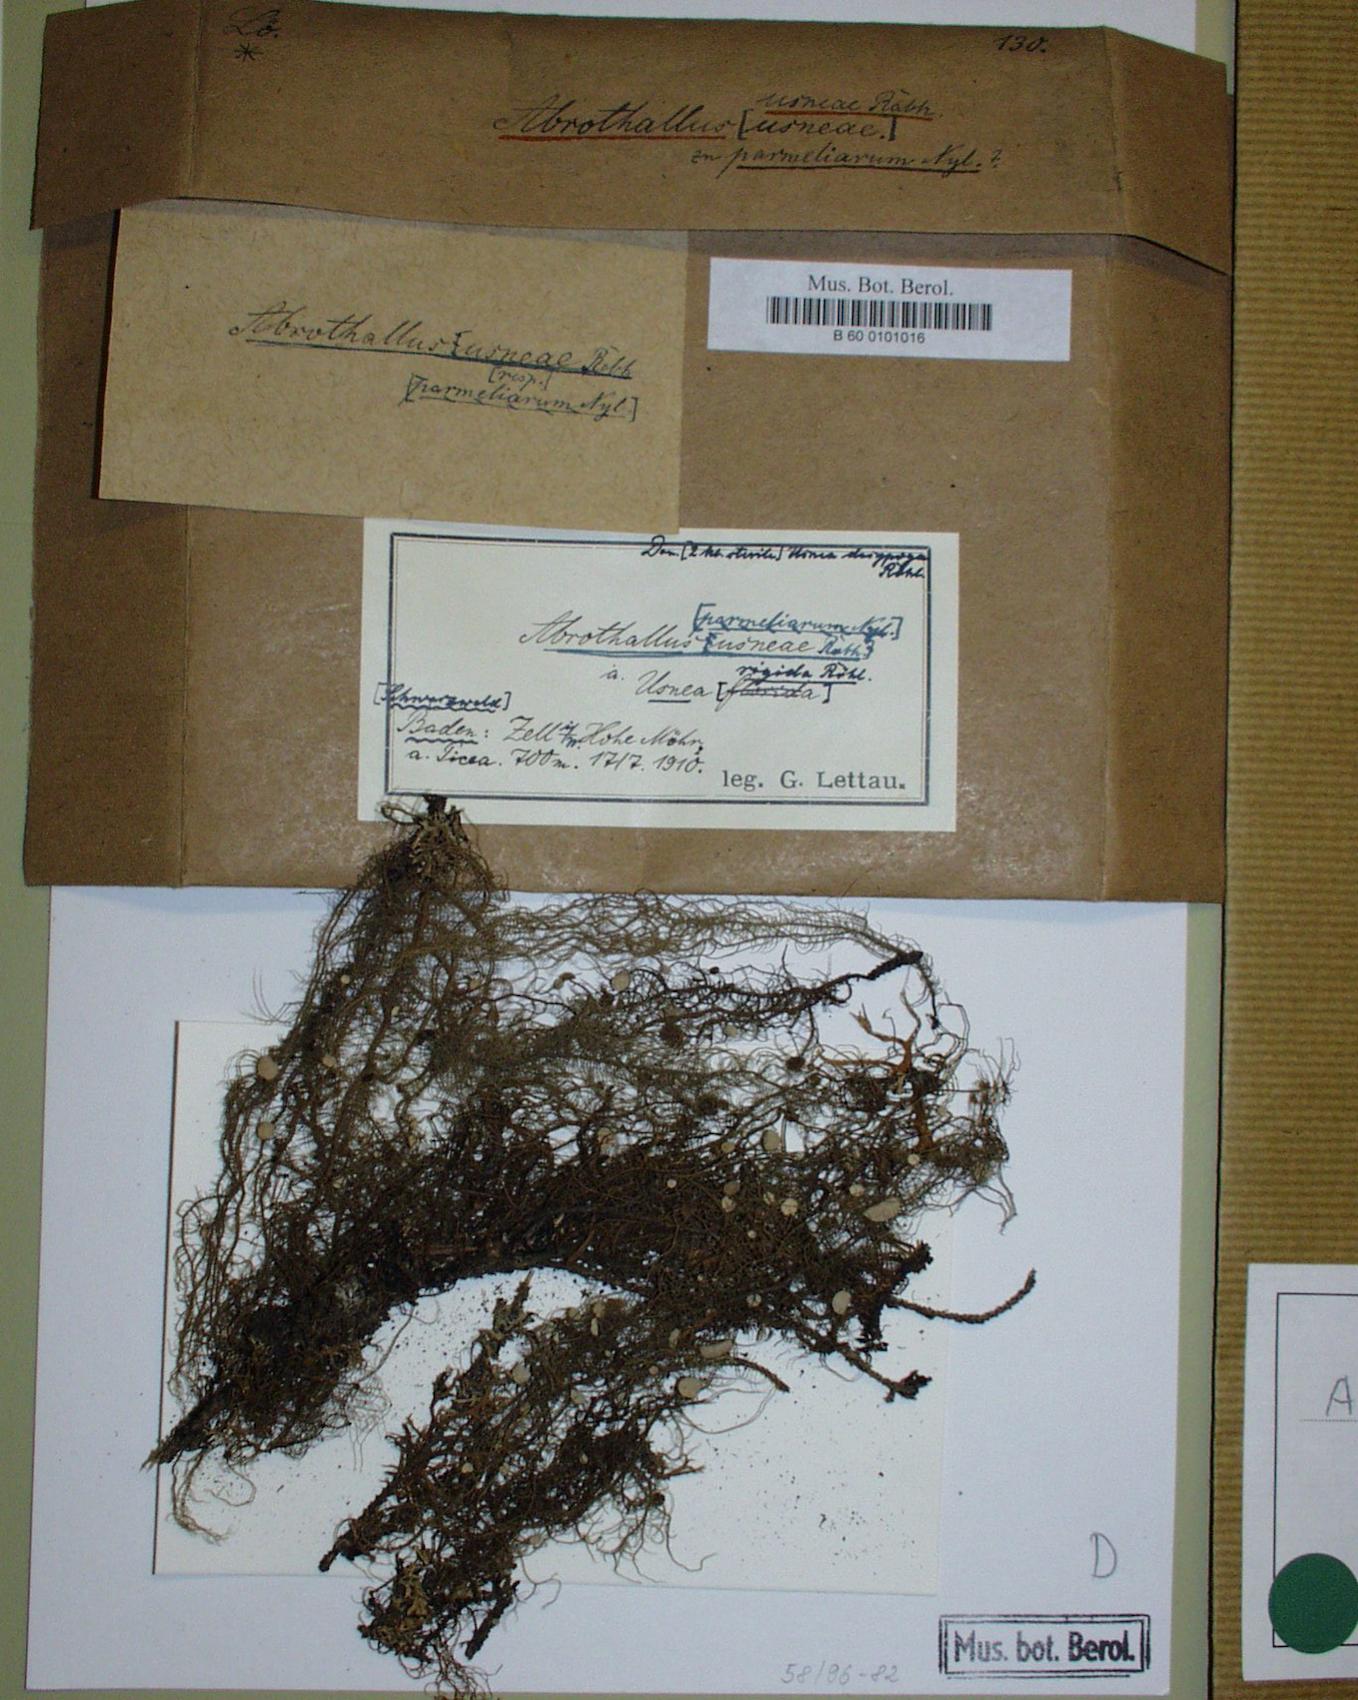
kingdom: Fungi
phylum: Ascomycota
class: Dothideomycetes
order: Abrothallales
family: Abrothallaceae
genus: Abrothallus
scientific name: Abrothallus usneae
